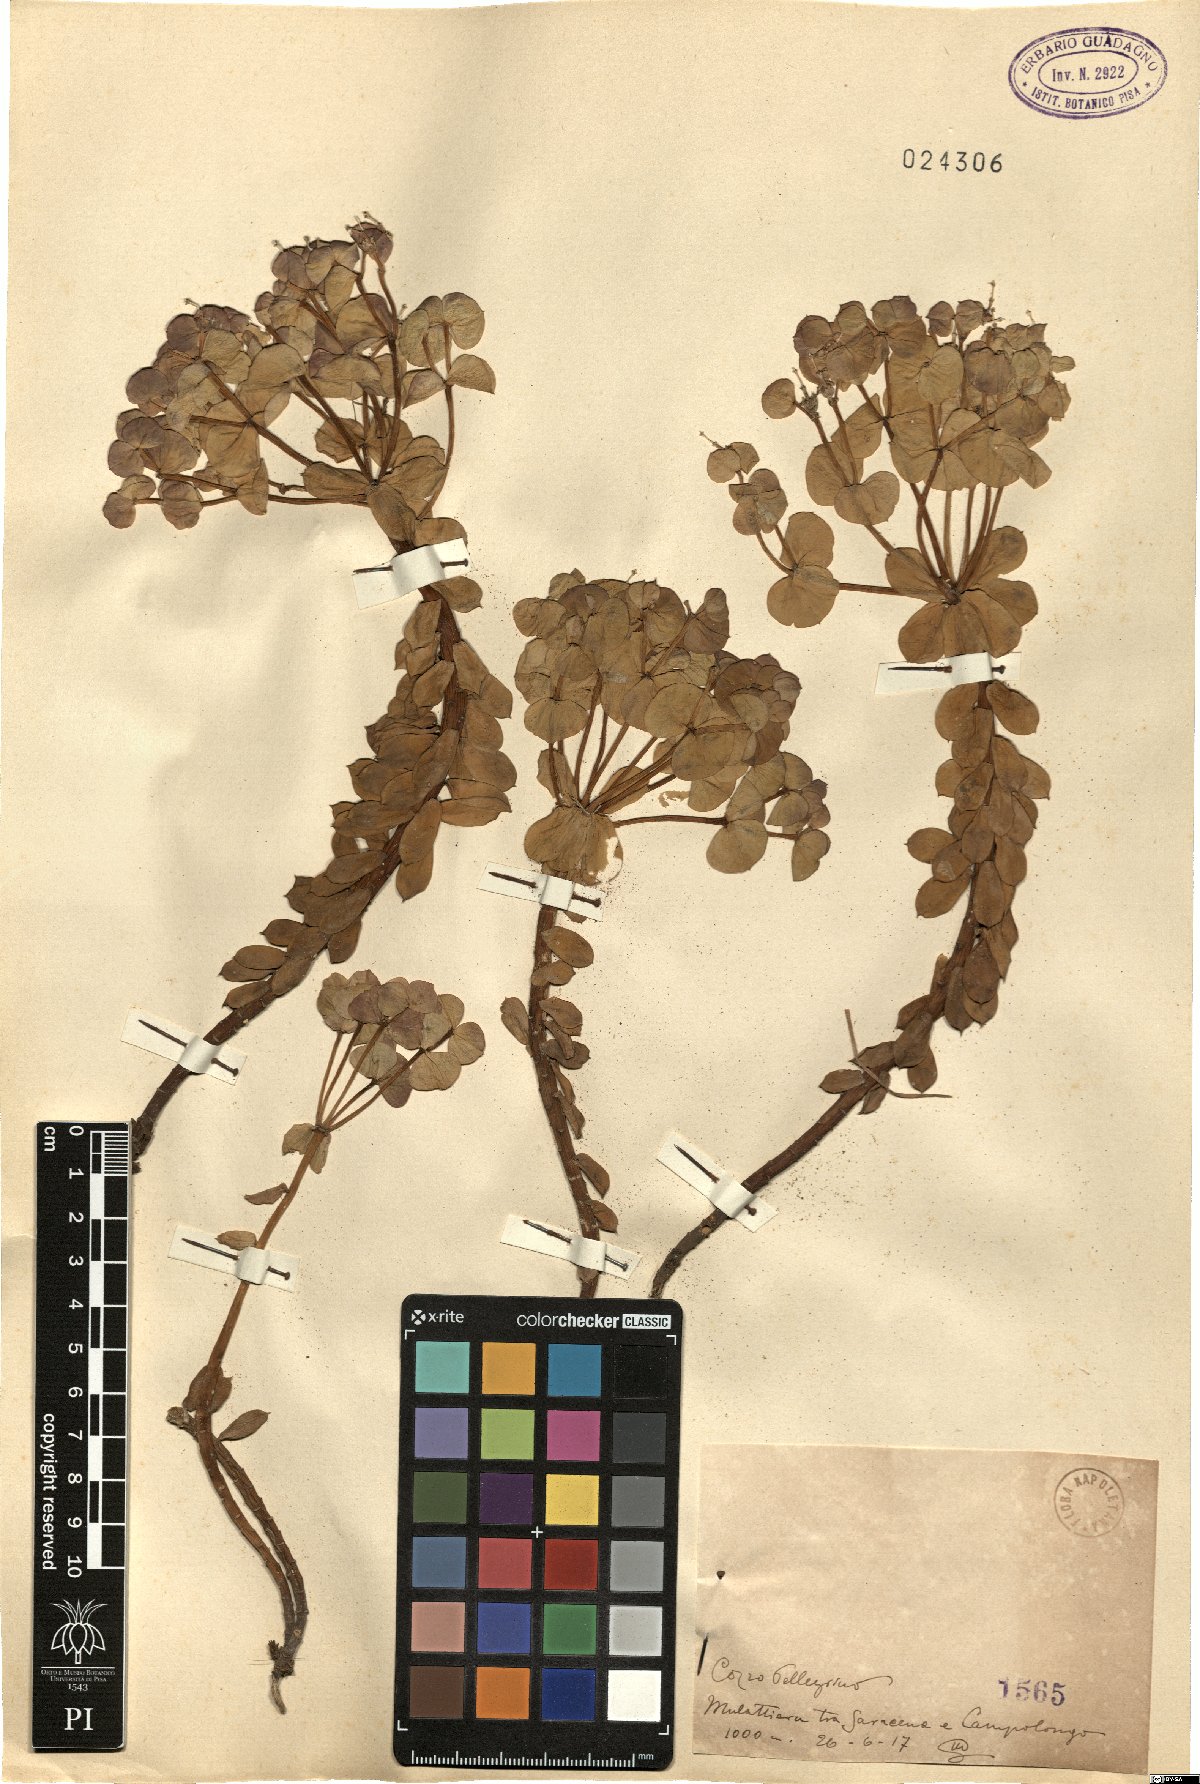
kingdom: Plantae
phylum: Tracheophyta
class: Magnoliopsida
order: Malpighiales
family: Euphorbiaceae
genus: Euphorbia
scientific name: Euphorbia
